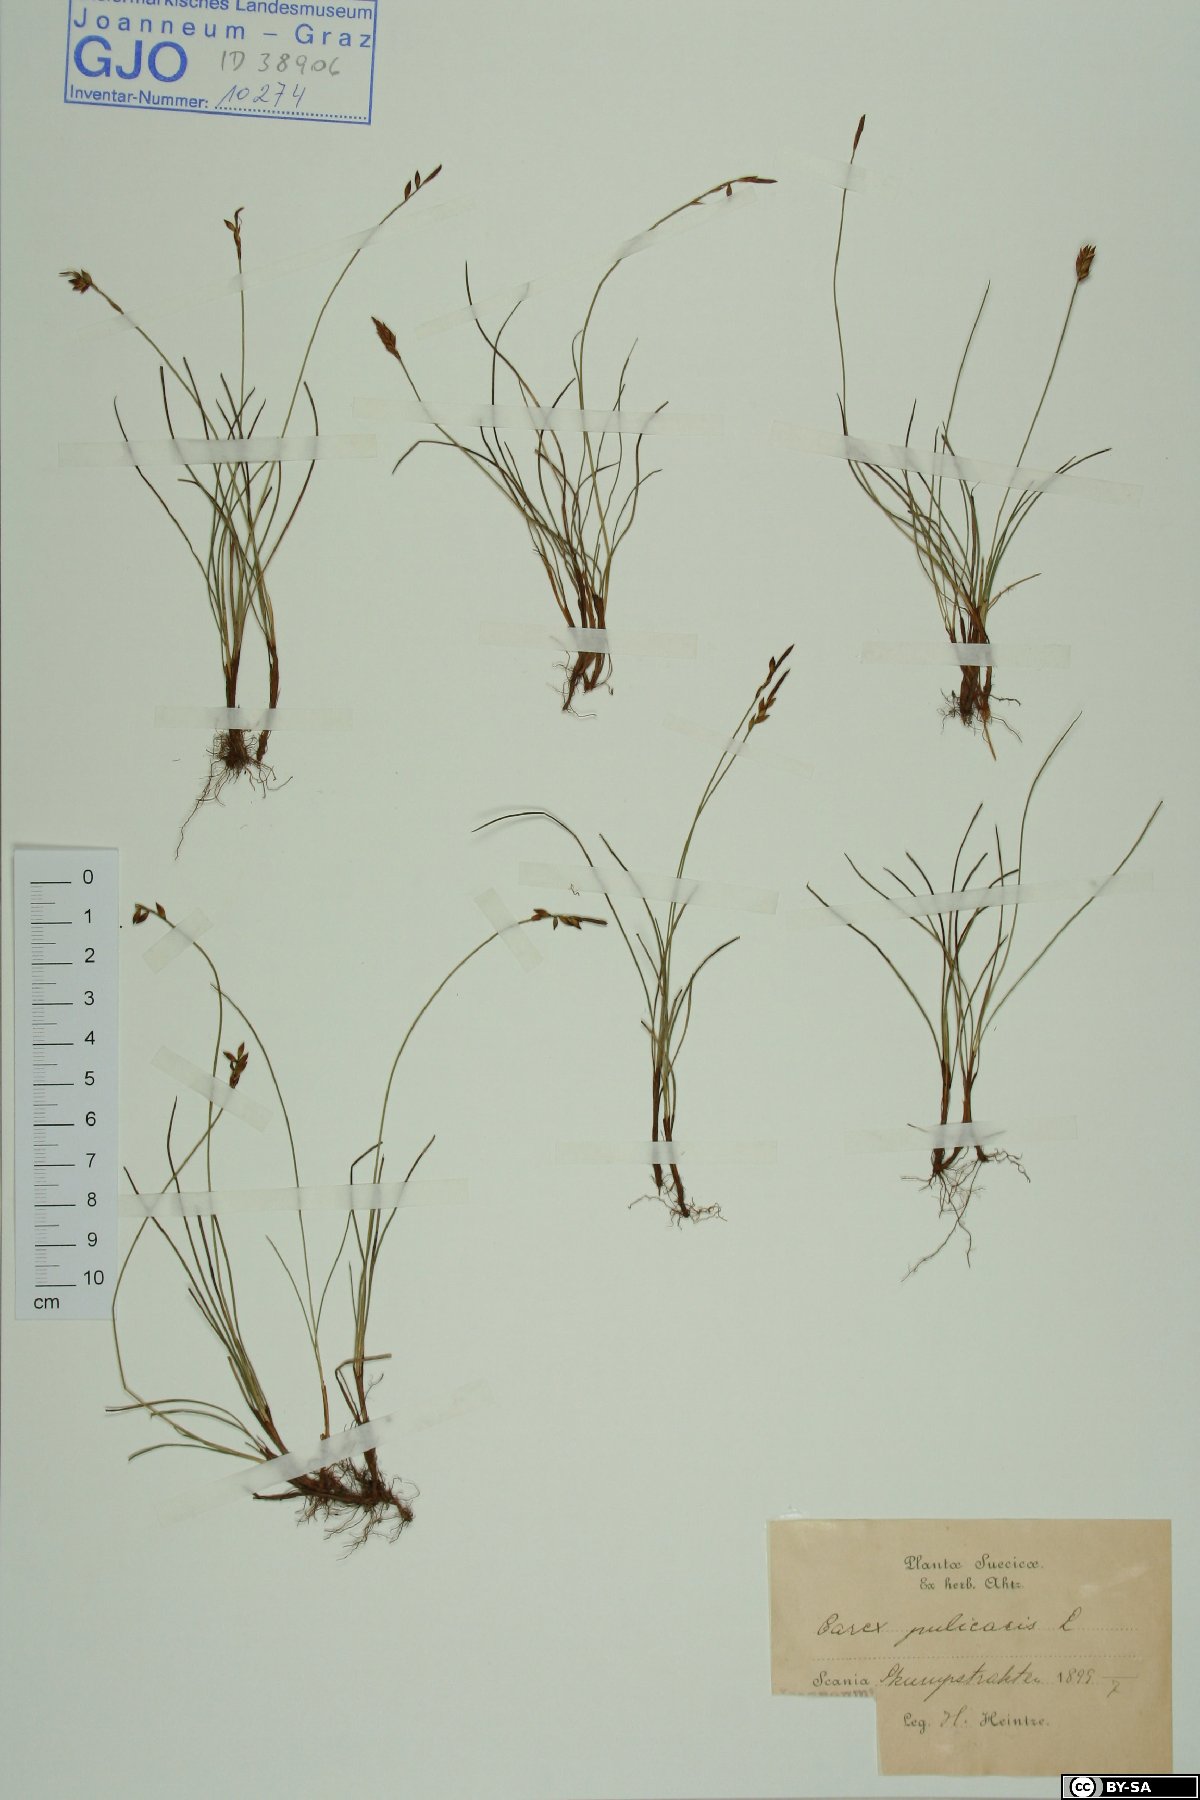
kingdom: Plantae
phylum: Tracheophyta
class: Liliopsida
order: Poales
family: Cyperaceae
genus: Carex
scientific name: Carex pulicaris
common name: Flea sedge
